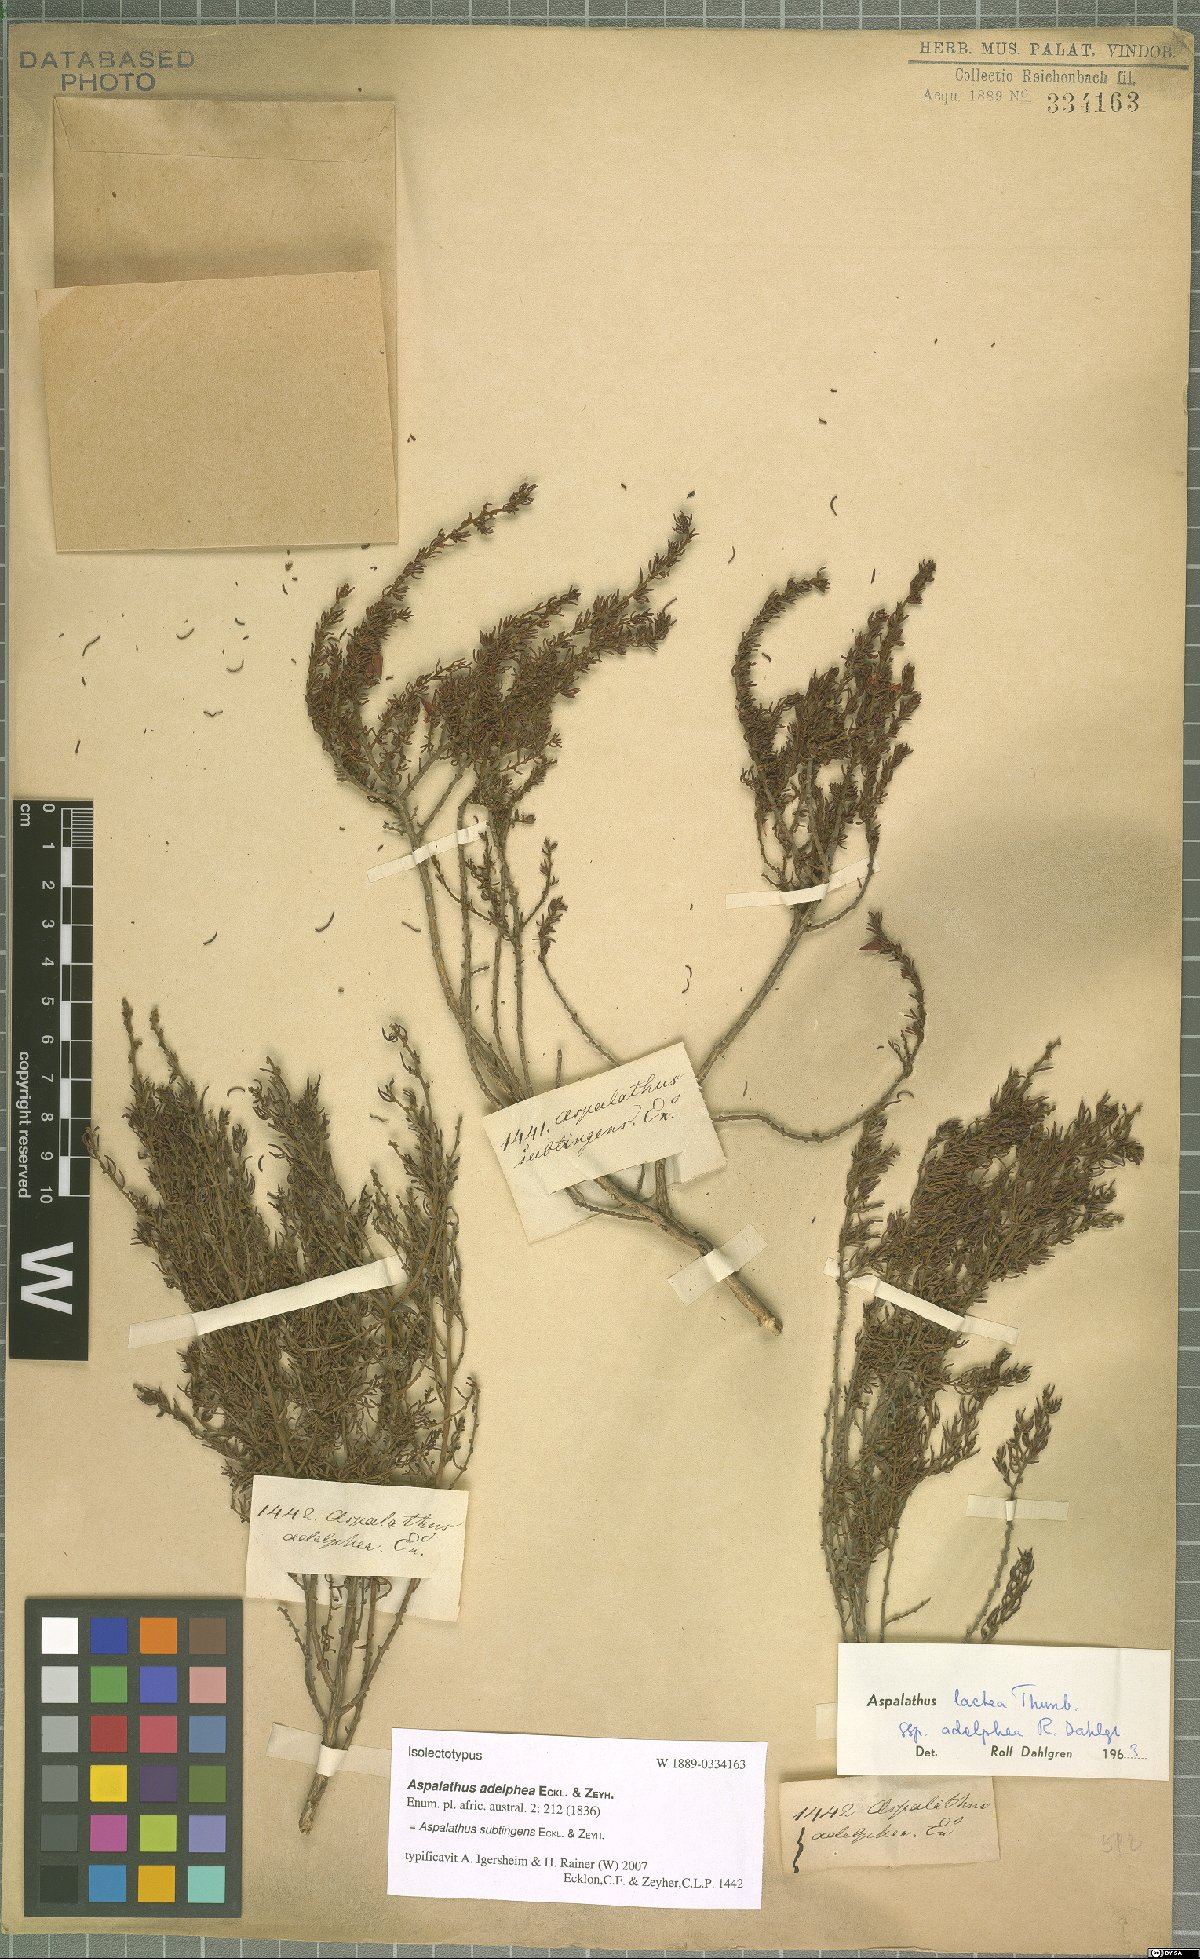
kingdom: Plantae
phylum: Tracheophyta
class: Magnoliopsida
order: Fabales
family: Fabaceae
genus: Aspalathus
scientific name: Aspalathus subtingens
